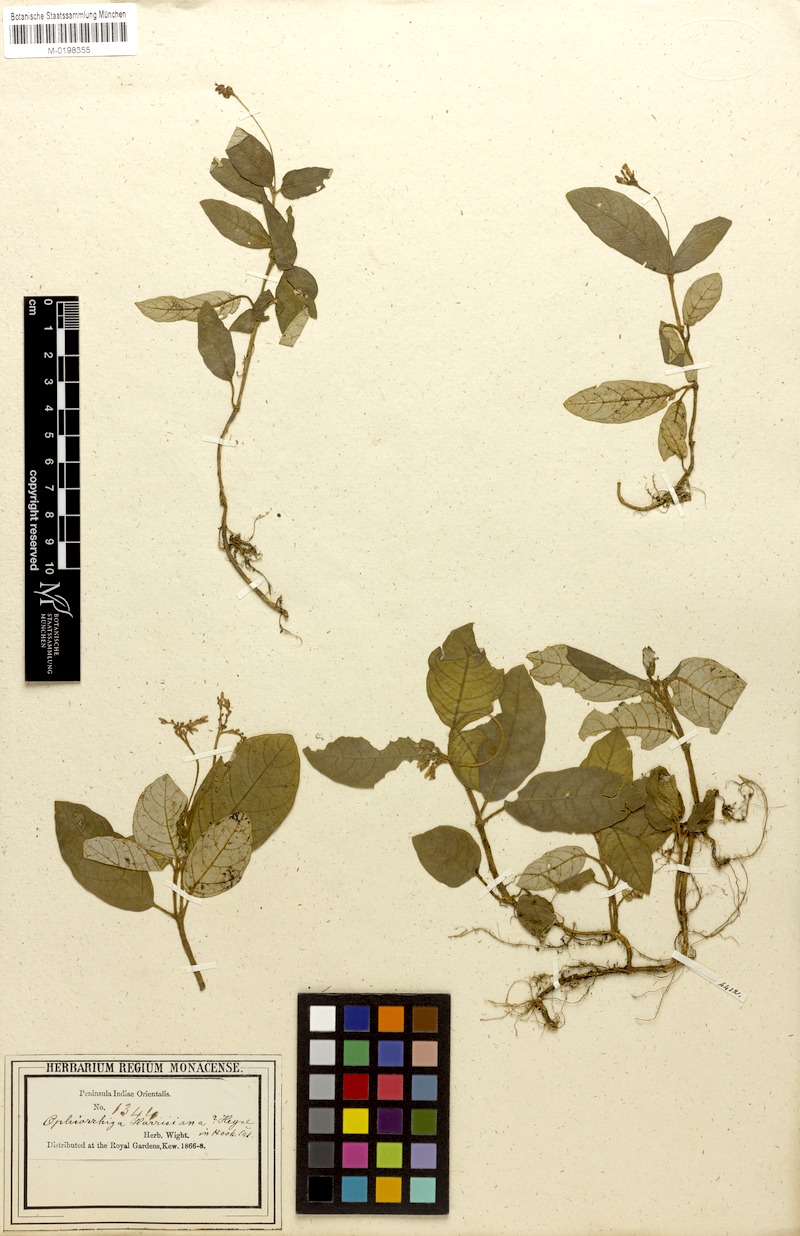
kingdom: Plantae
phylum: Tracheophyta
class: Magnoliopsida
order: Gentianales
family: Rubiaceae
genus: Ophiorrhiza
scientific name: Ophiorrhiza rugosa
